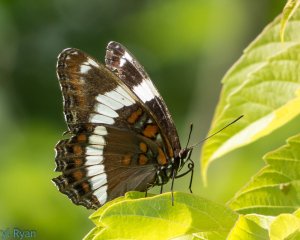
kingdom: Animalia
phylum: Arthropoda
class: Insecta
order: Lepidoptera
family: Nymphalidae
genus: Limenitis
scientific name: Limenitis arthemis
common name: Red-spotted Admiral
